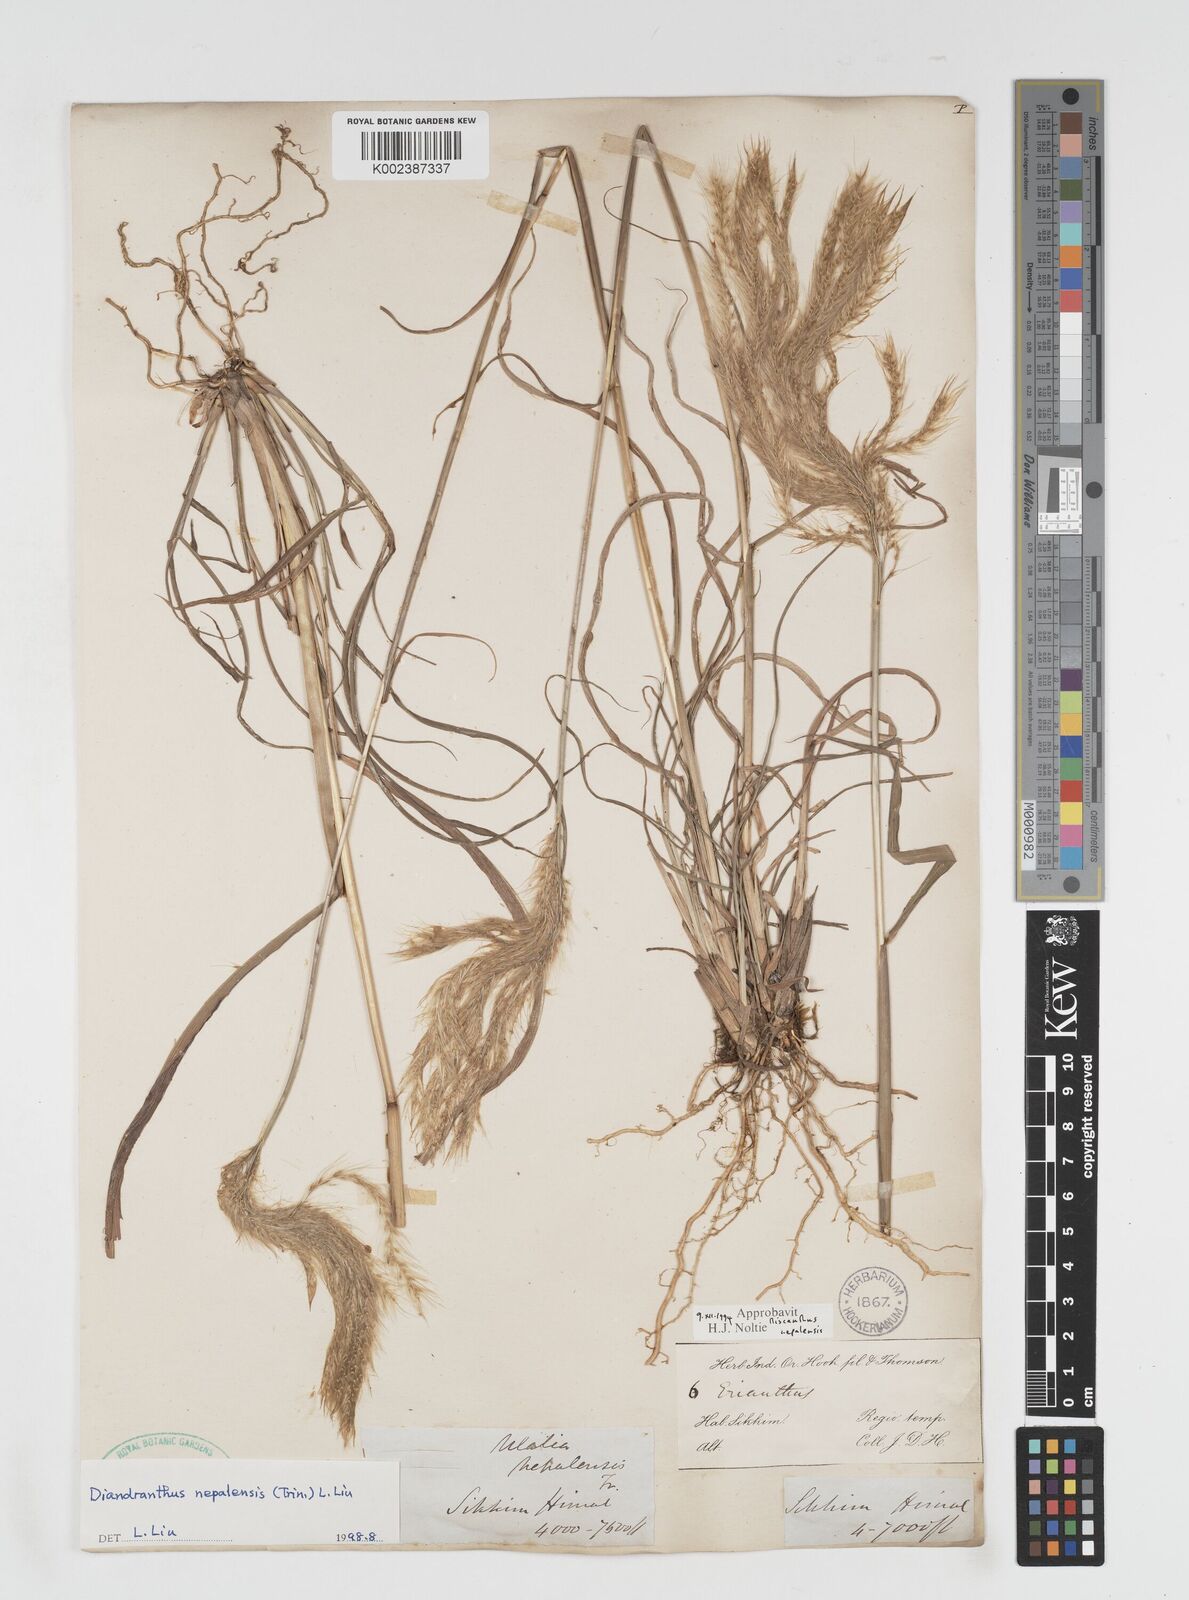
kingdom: Plantae
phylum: Tracheophyta
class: Liliopsida
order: Poales
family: Poaceae
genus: Miscanthus
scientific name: Miscanthus nepalensis
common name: Nepal silver grass
